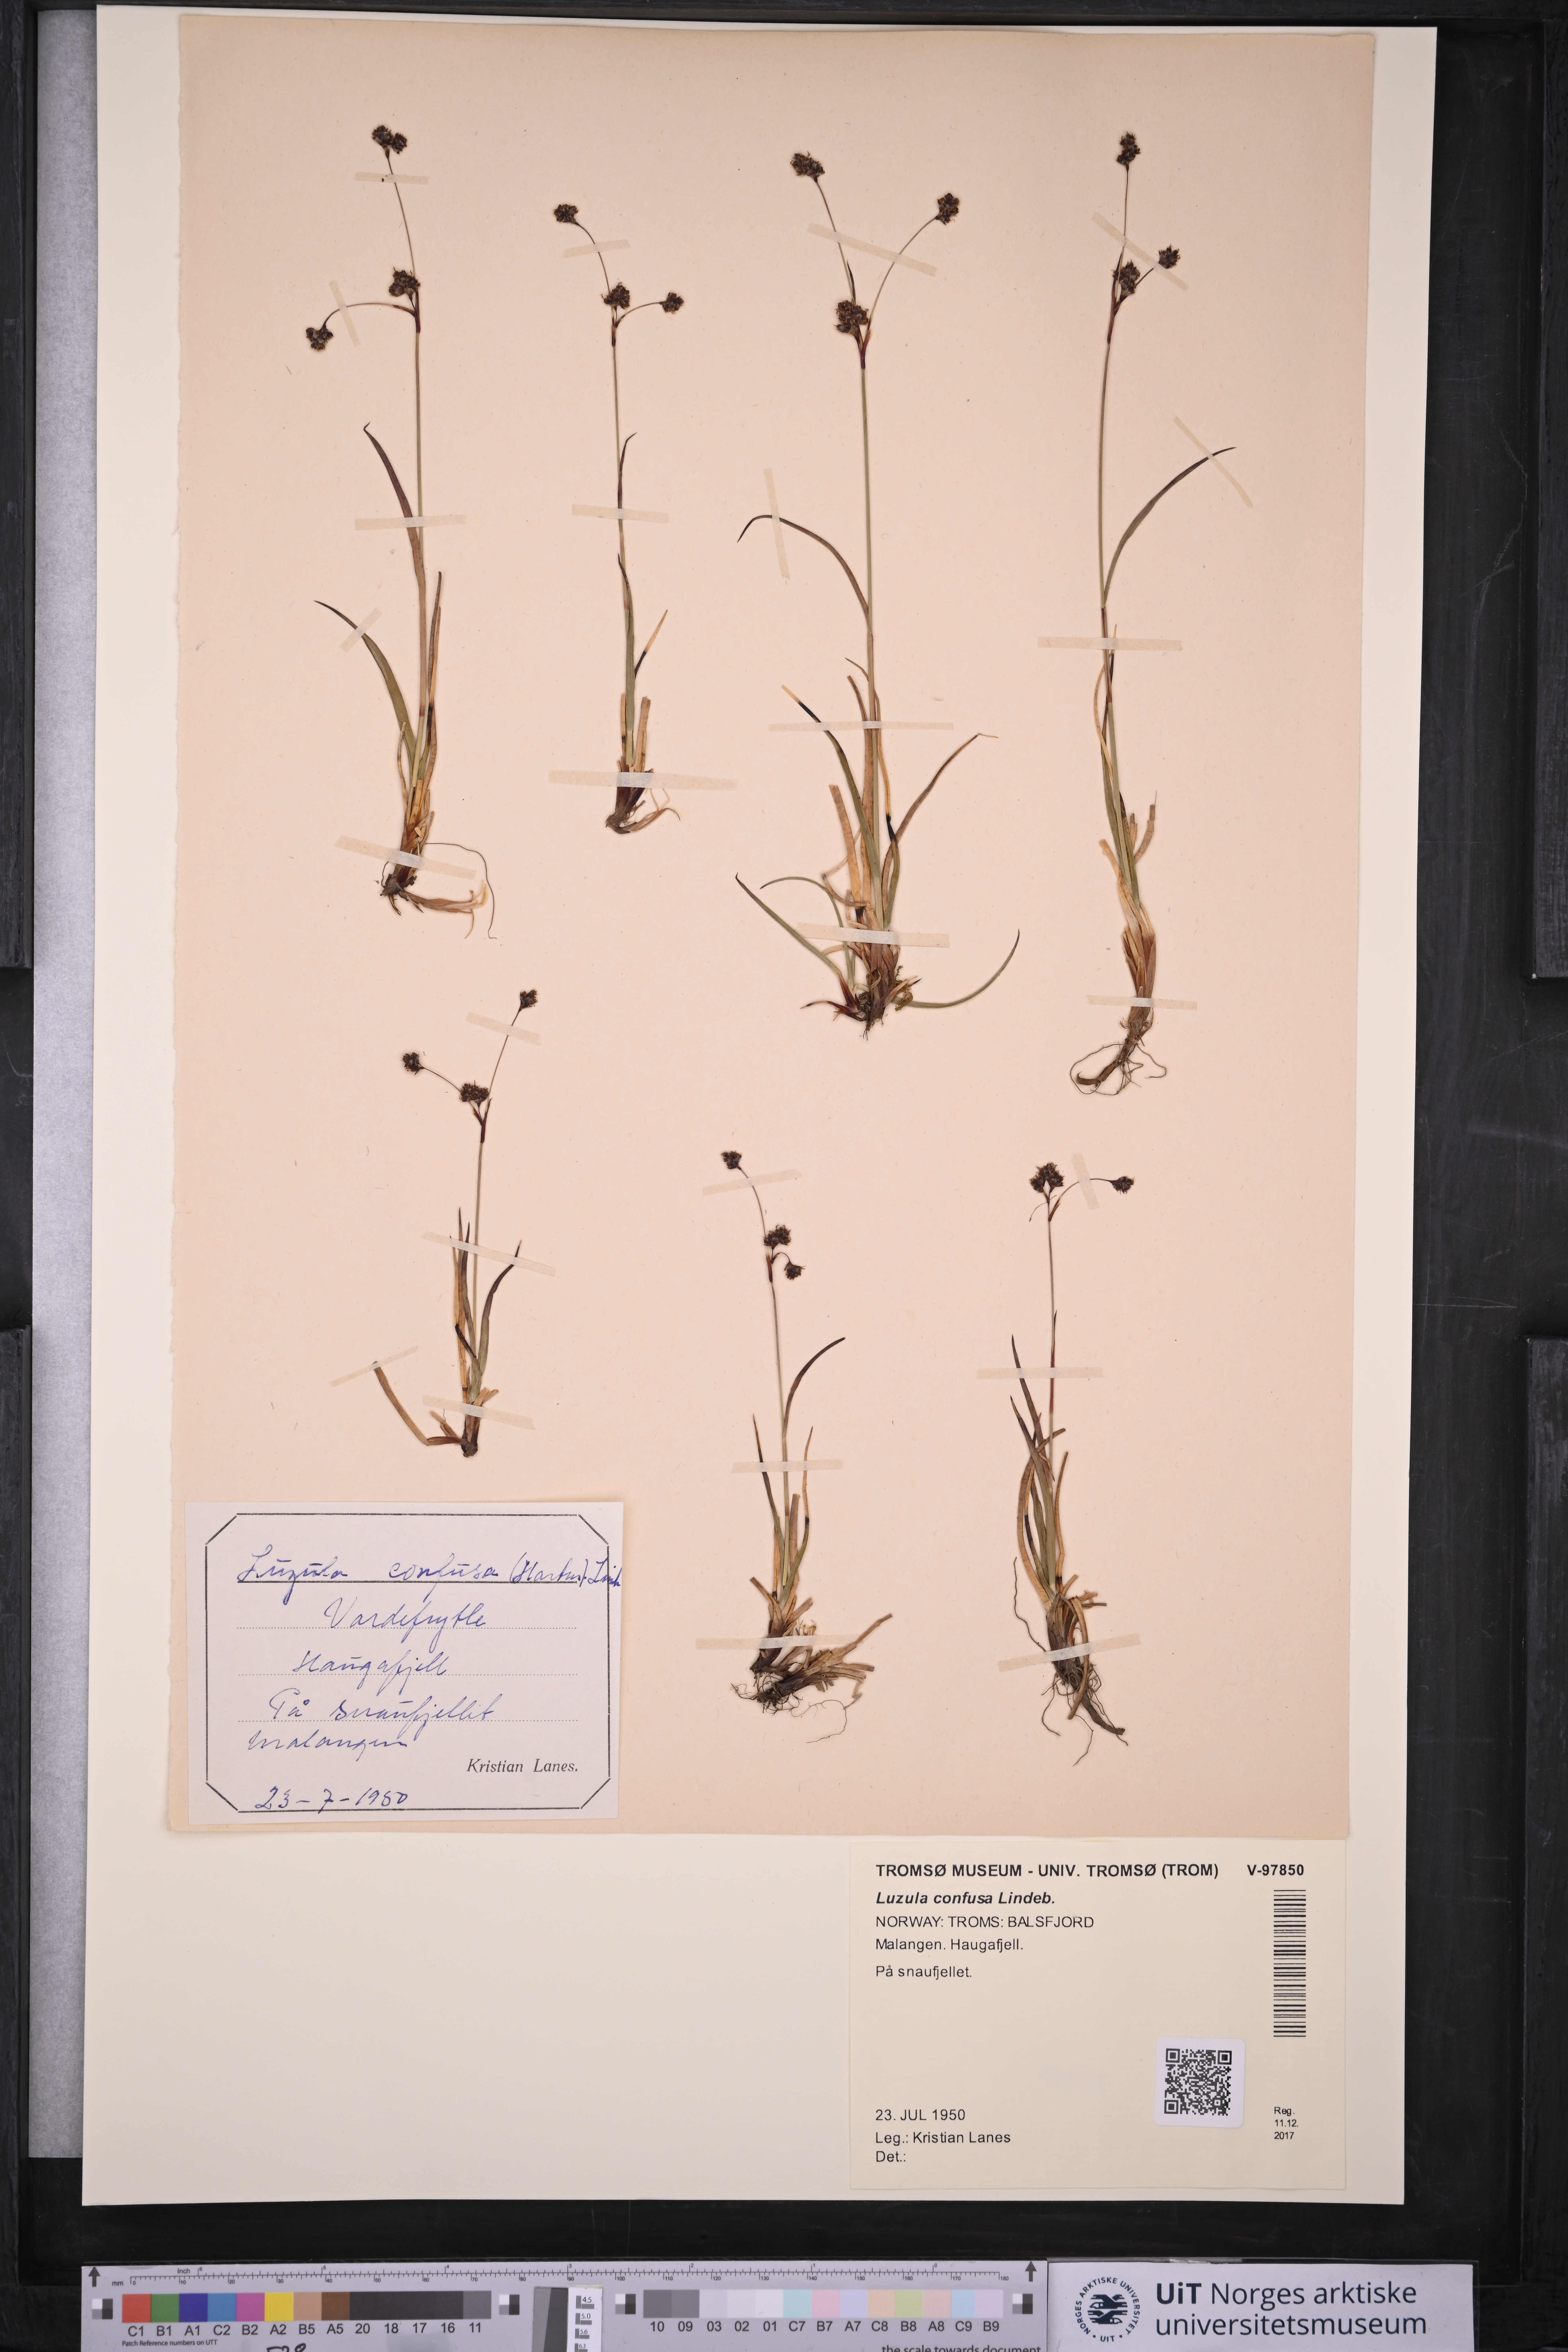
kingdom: Plantae
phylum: Tracheophyta
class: Liliopsida
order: Poales
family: Juncaceae
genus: Luzula
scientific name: Luzula confusa
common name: Northern wood rush
